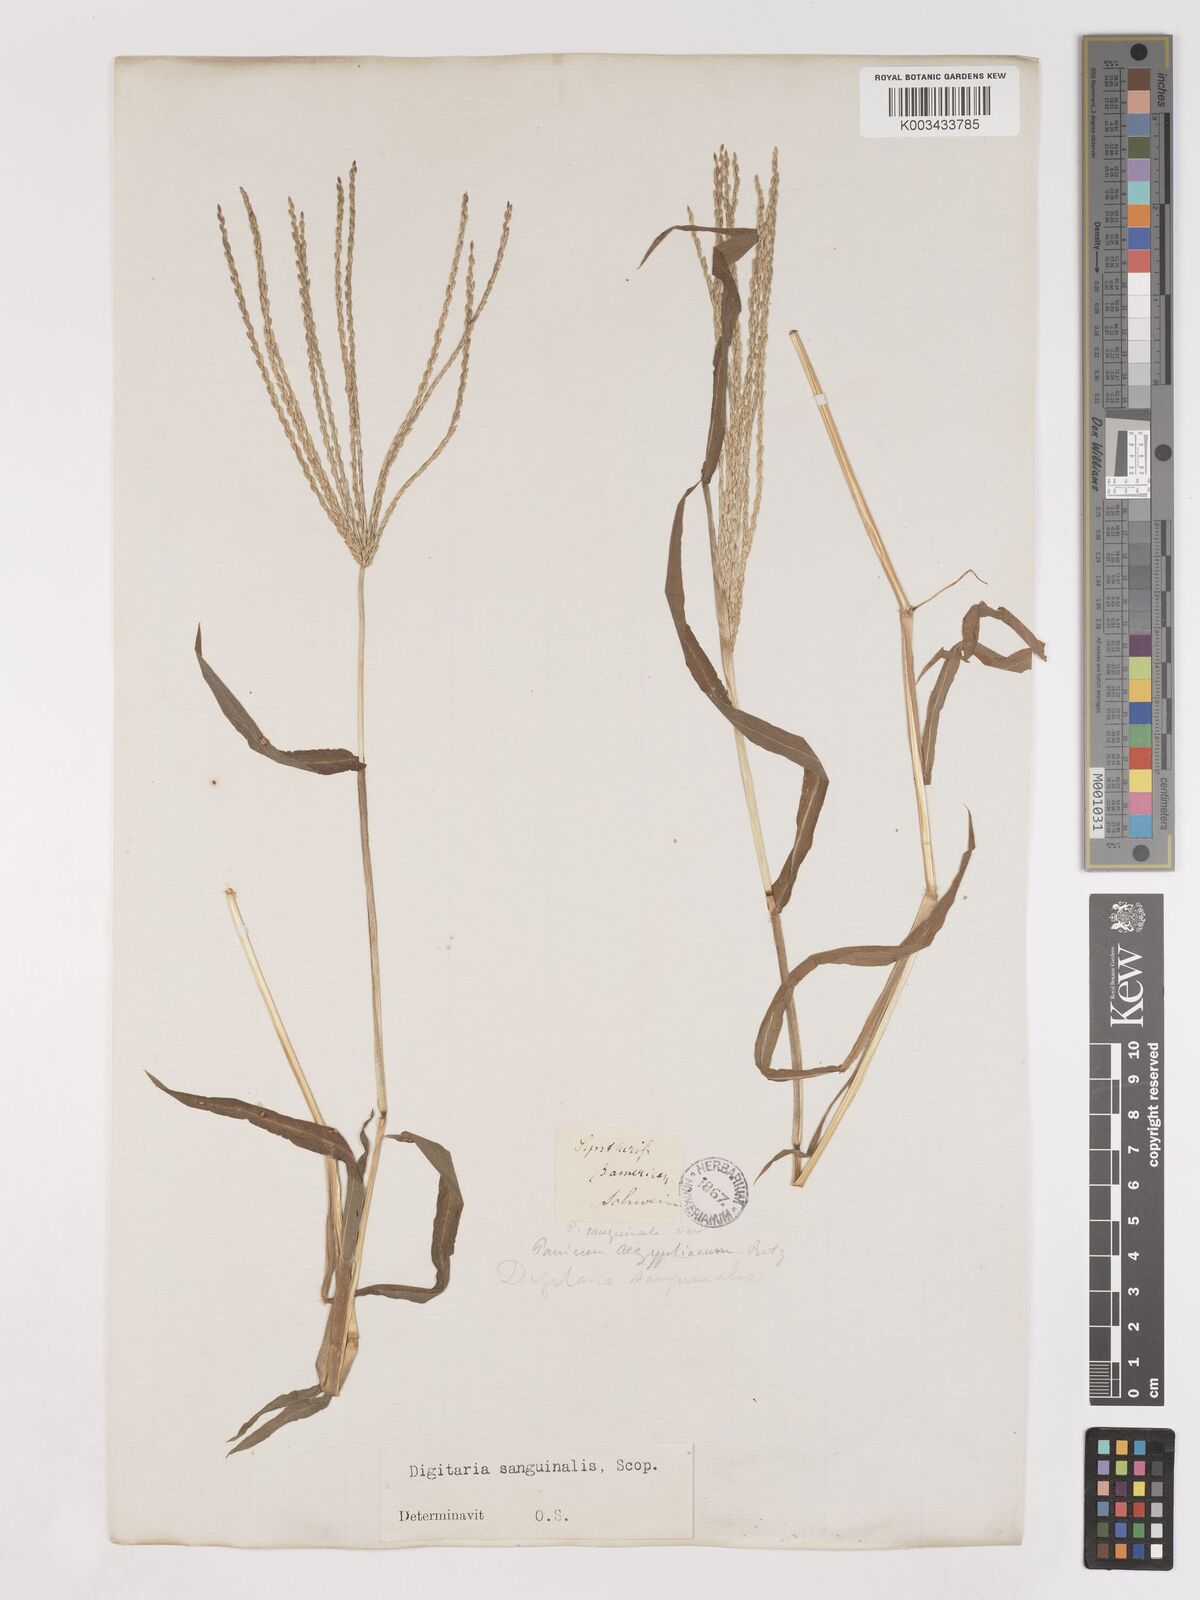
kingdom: Plantae
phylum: Tracheophyta
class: Liliopsida
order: Poales
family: Poaceae
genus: Digitaria
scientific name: Digitaria sanguinalis
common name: Hairy crabgrass
